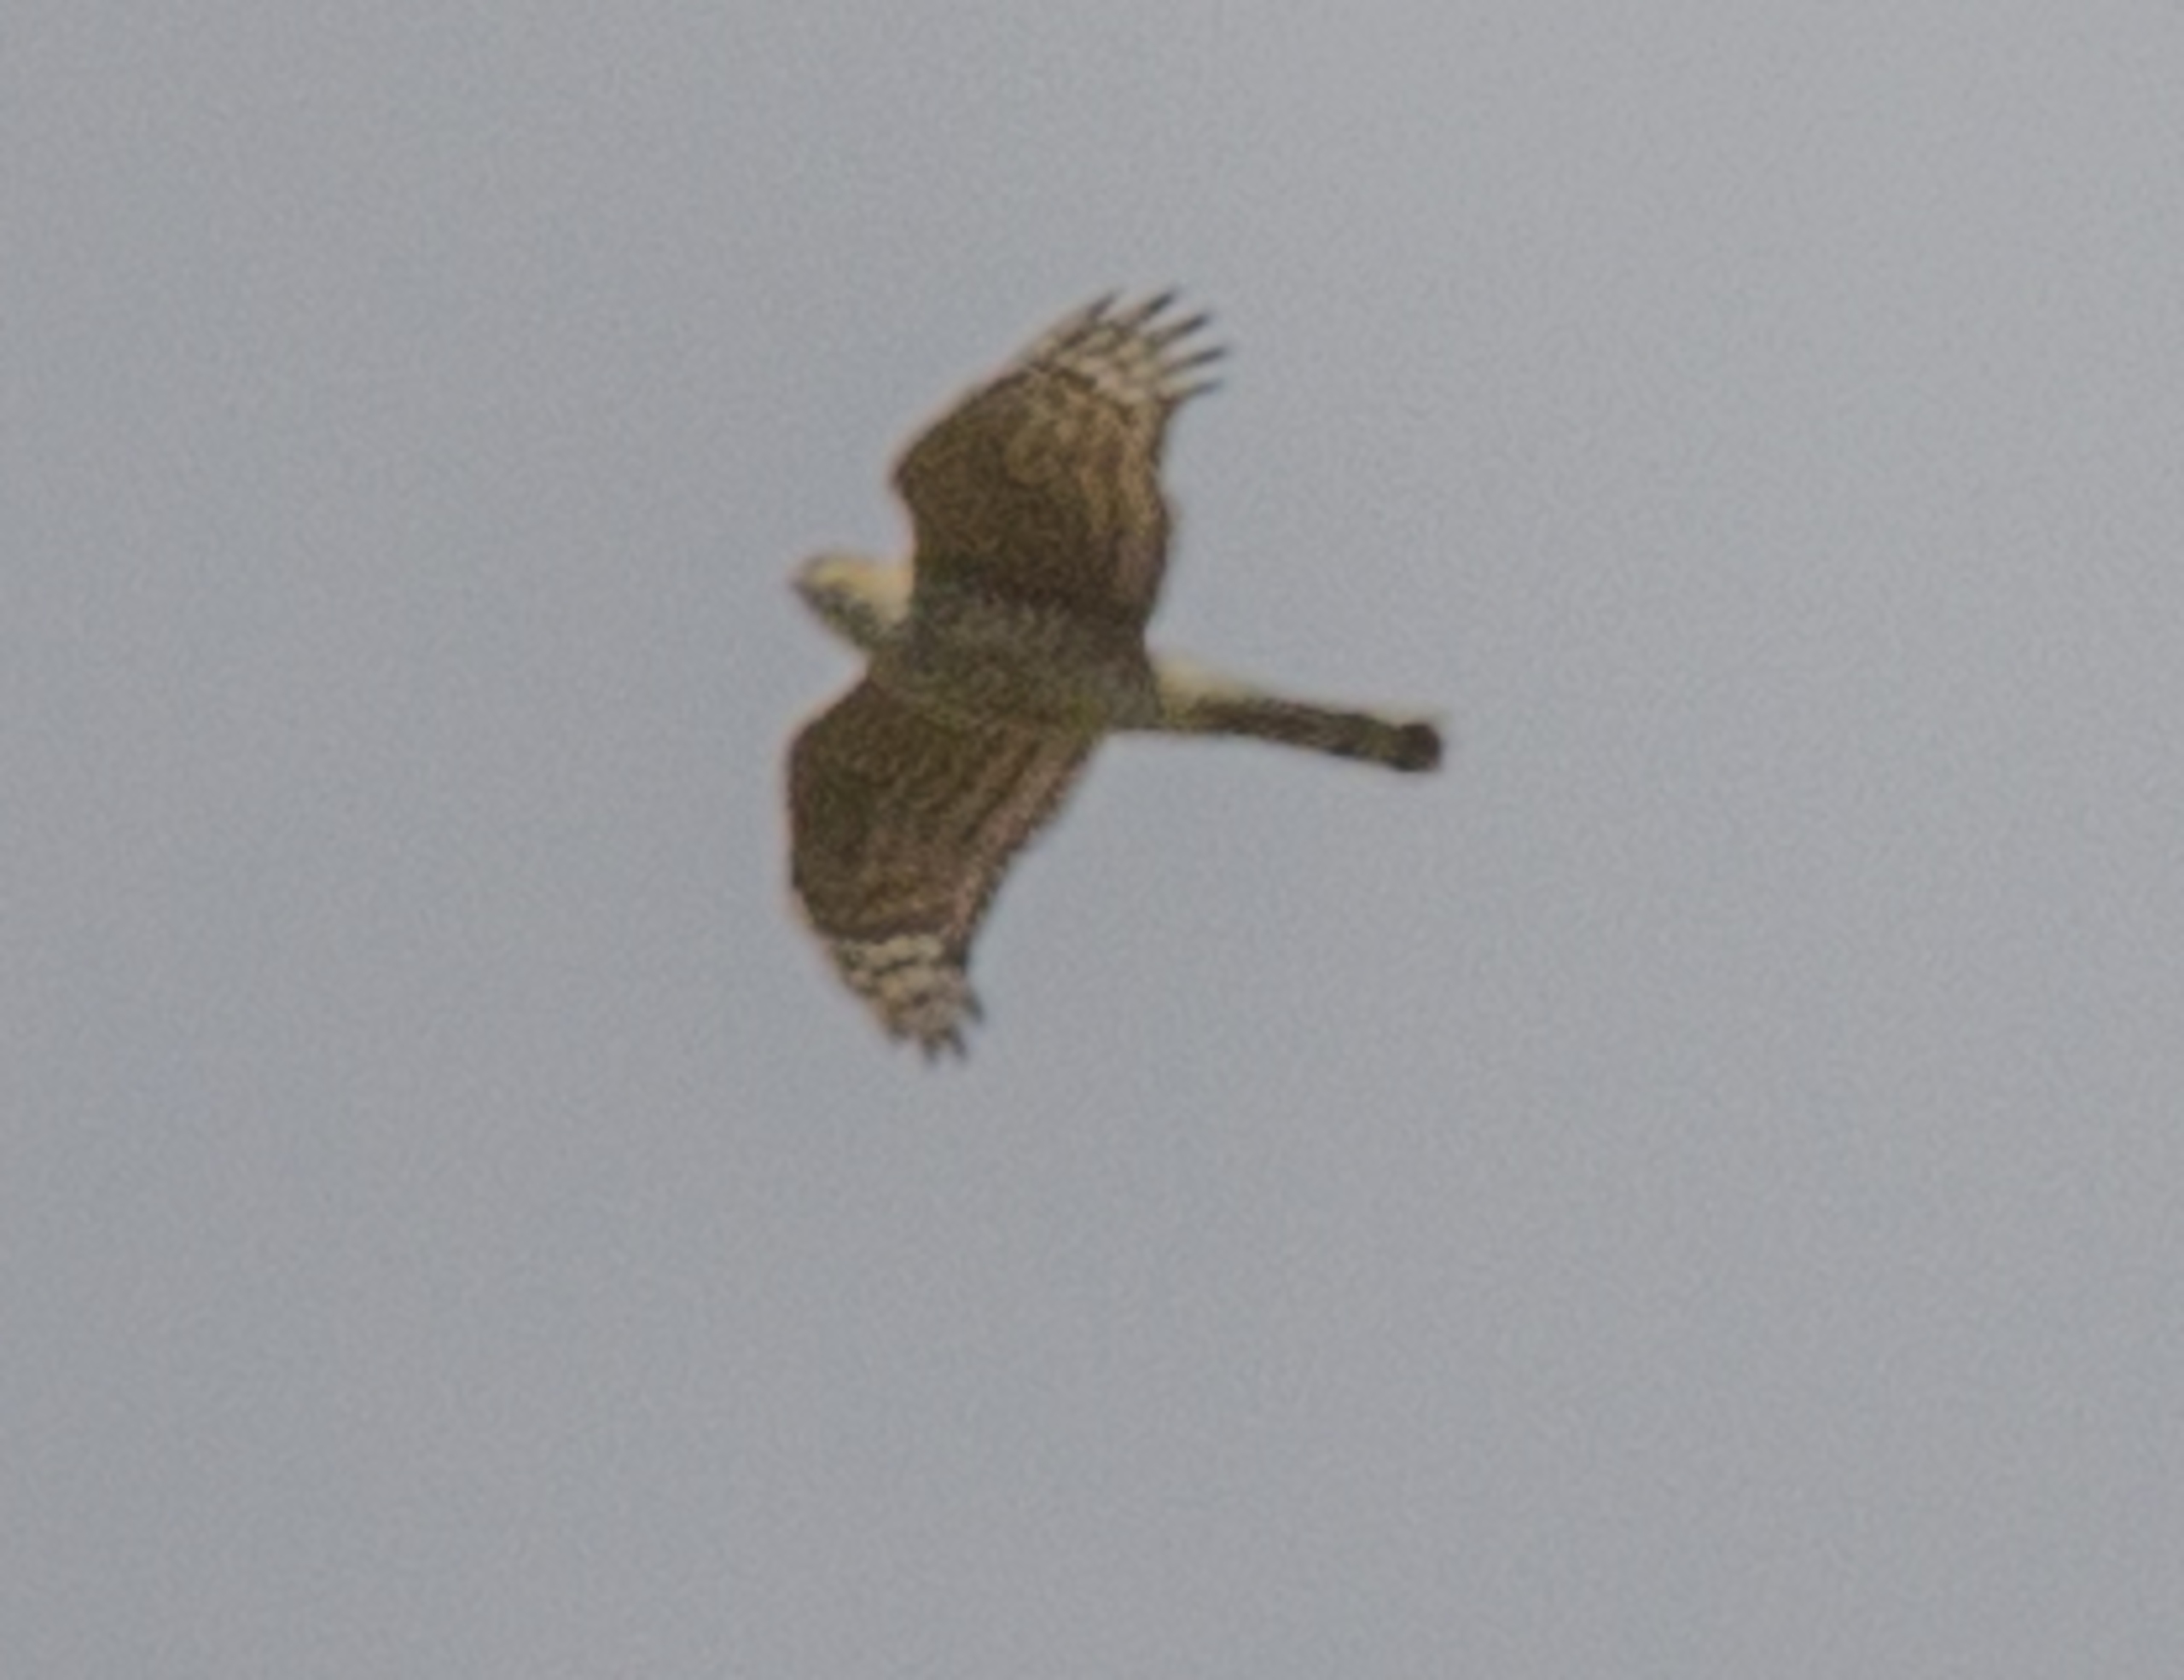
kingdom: Animalia
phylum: Chordata
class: Aves
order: Accipitriformes
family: Accipitridae
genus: Accipiter
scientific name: Accipiter nisus
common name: Spurvehøg
